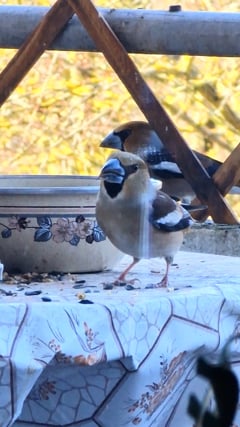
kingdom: Animalia
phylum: Chordata
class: Aves
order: Passeriformes
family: Fringillidae
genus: Coccothraustes
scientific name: Coccothraustes coccothraustes
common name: Hawfinch
